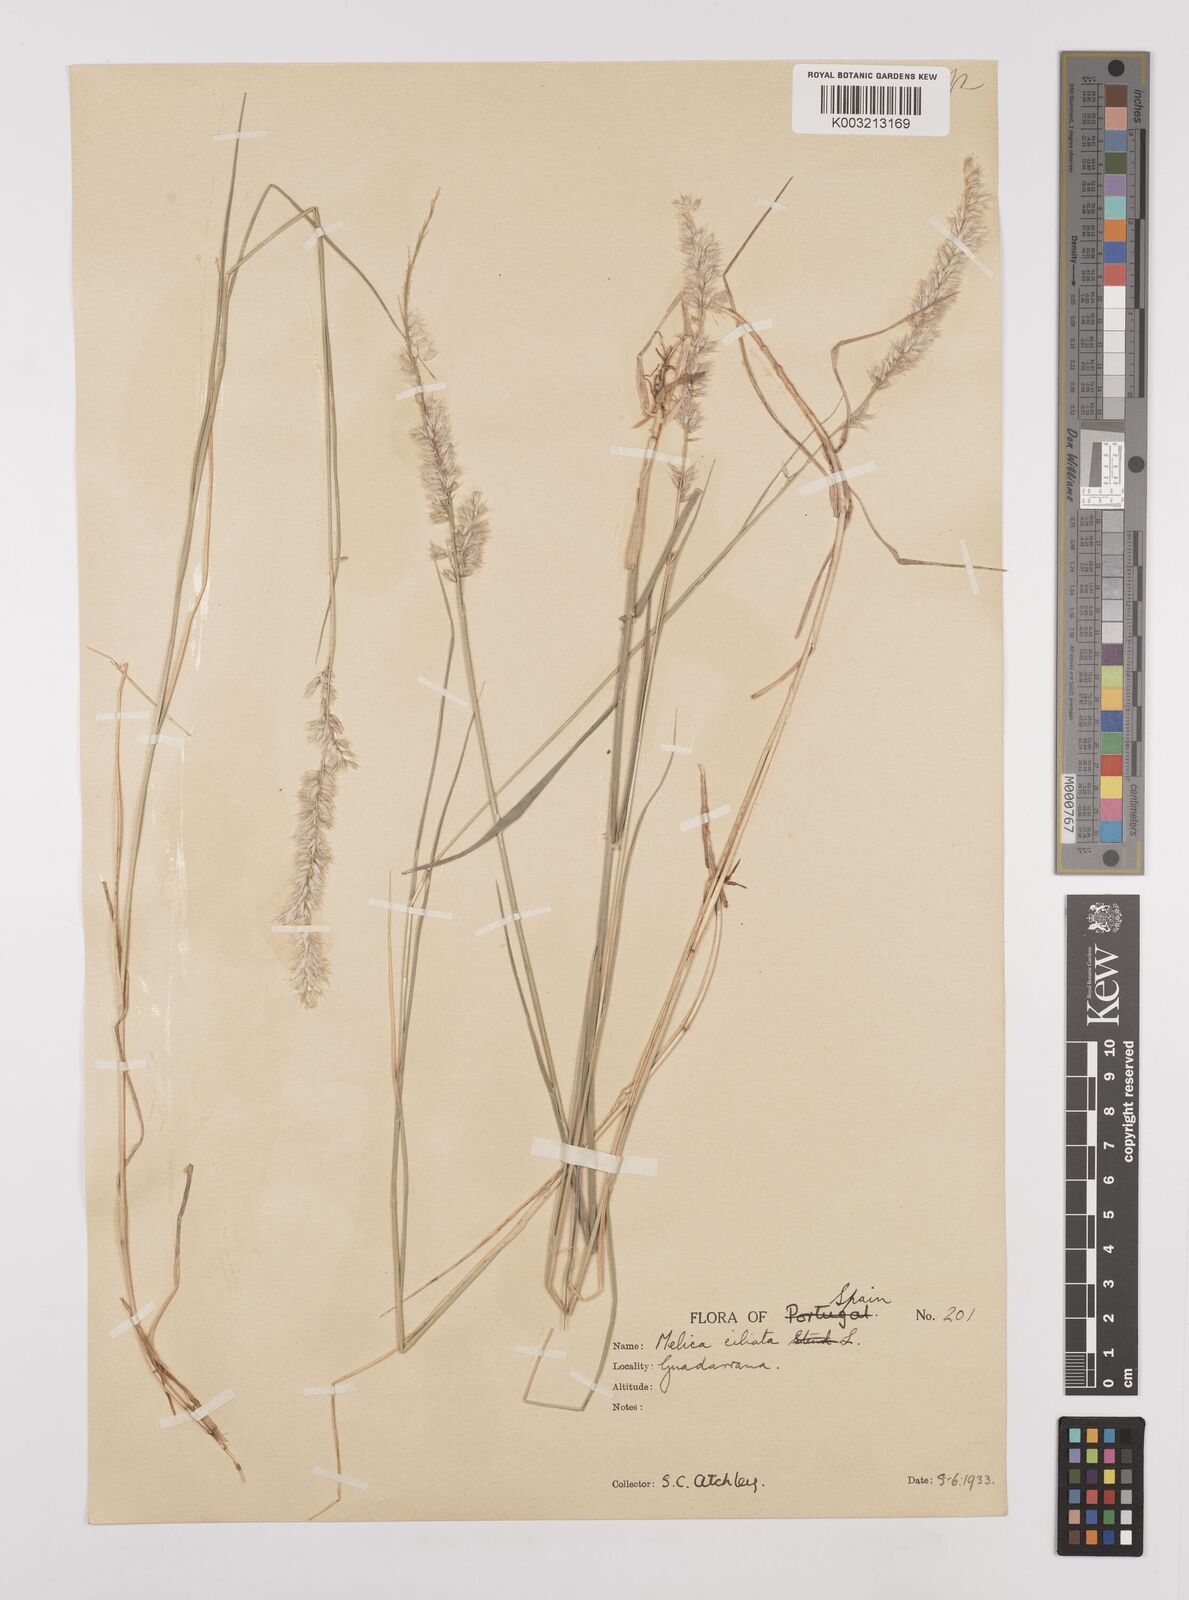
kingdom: Plantae
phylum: Tracheophyta
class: Liliopsida
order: Poales
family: Poaceae
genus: Melica
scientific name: Melica ciliata
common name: Hairy melicgrass
